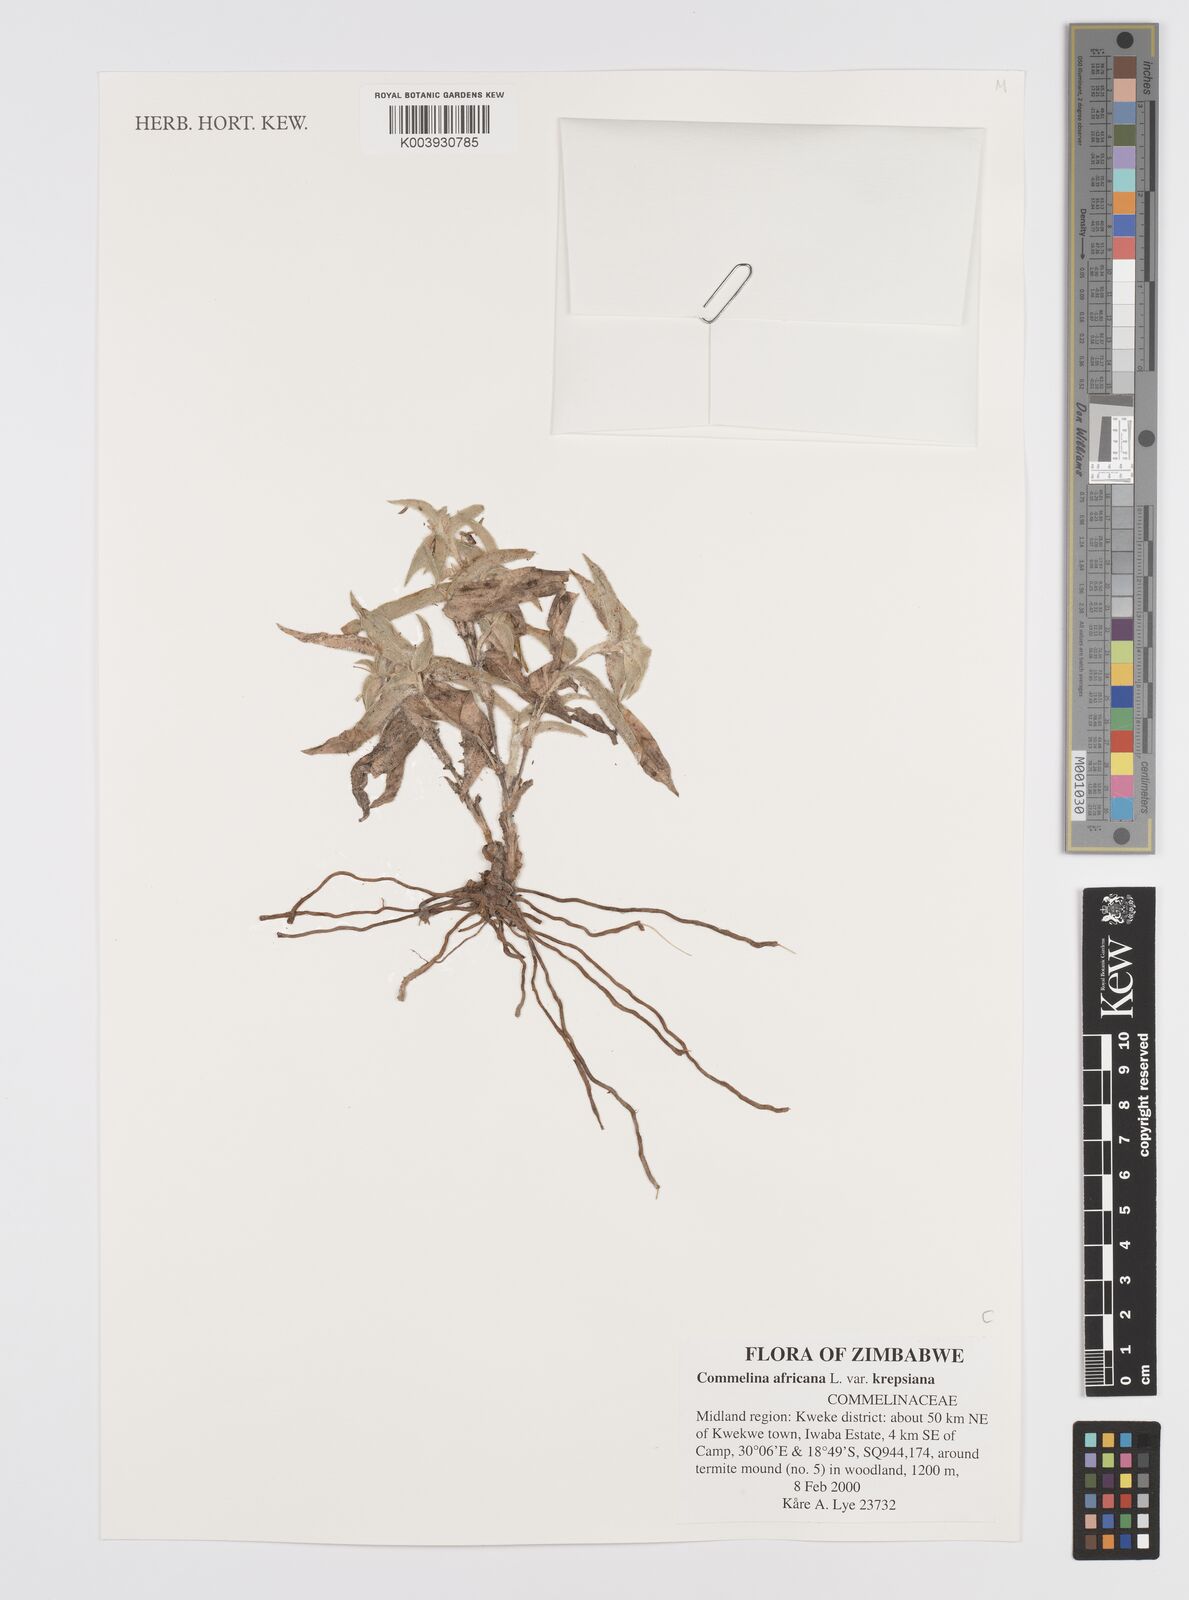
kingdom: Plantae
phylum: Tracheophyta
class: Liliopsida
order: Commelinales
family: Commelinaceae
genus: Commelina
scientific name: Commelina africana
